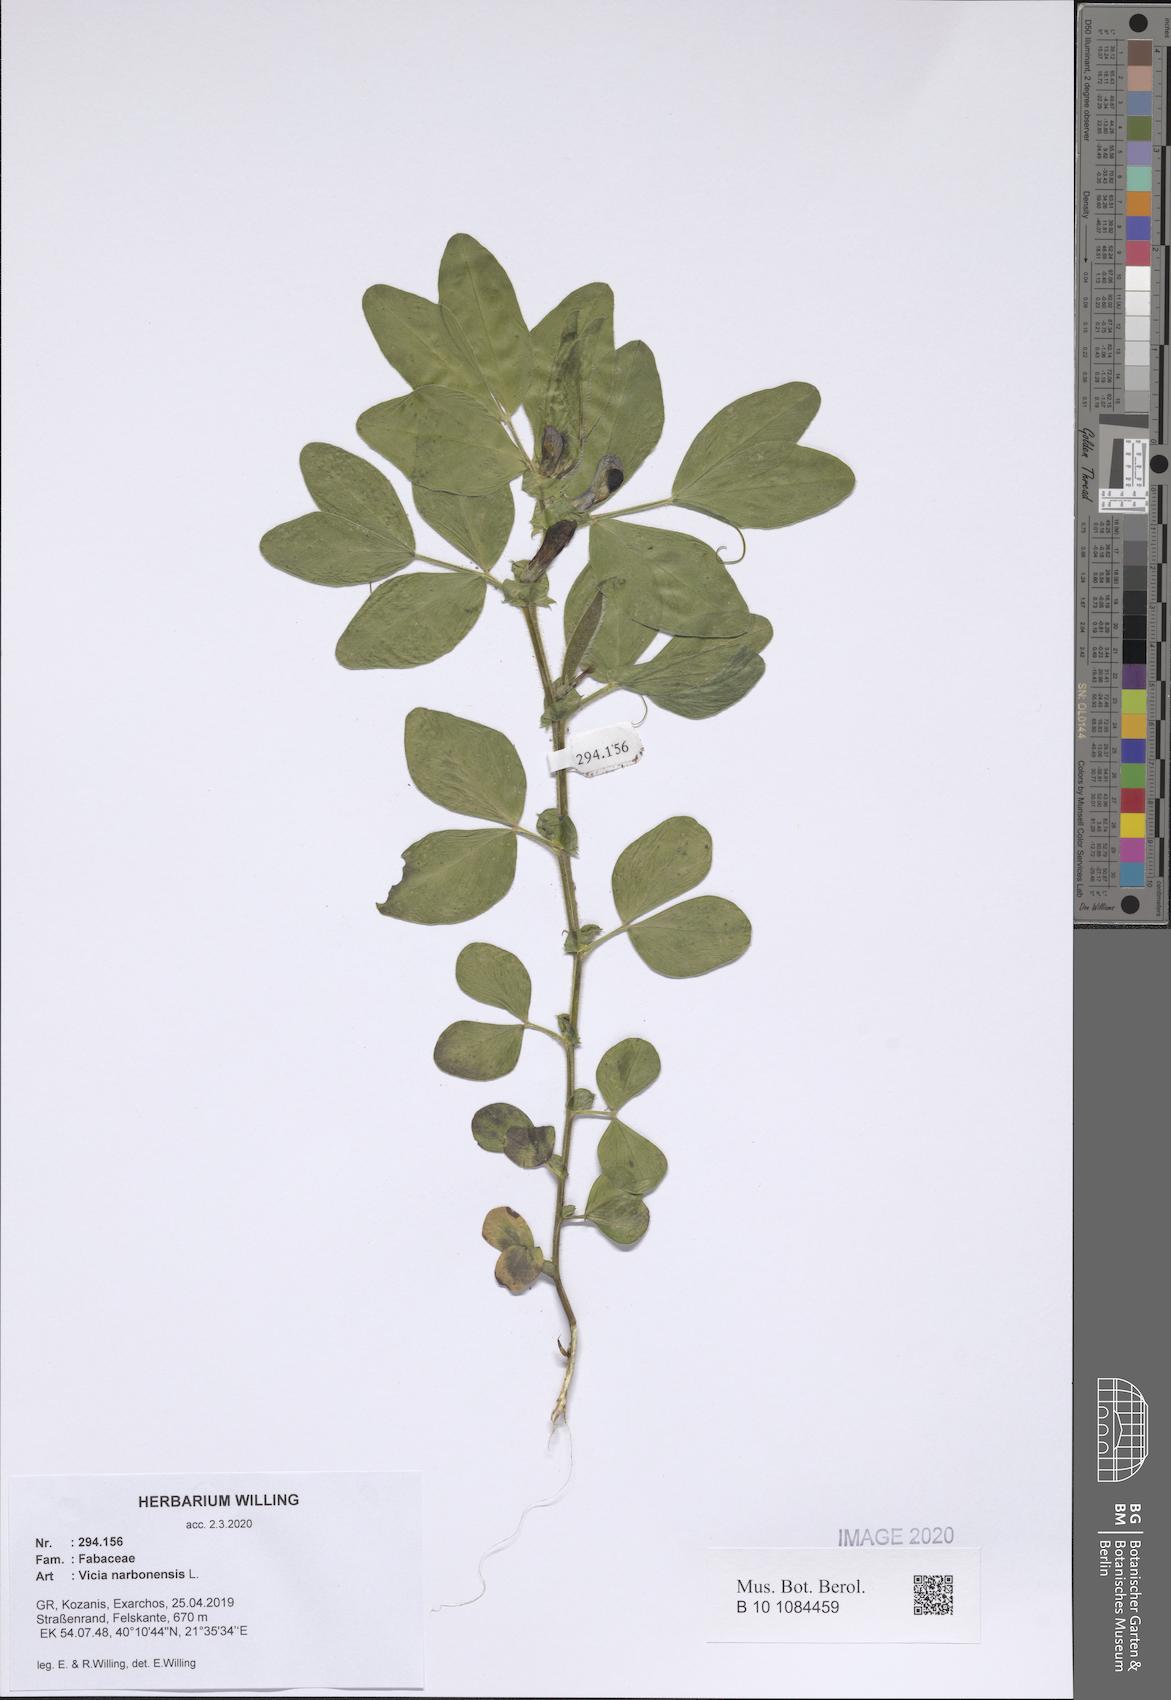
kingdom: Plantae
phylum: Tracheophyta
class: Magnoliopsida
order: Fabales
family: Fabaceae
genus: Vicia
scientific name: Vicia narbonensis
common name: Narbonne vetch
